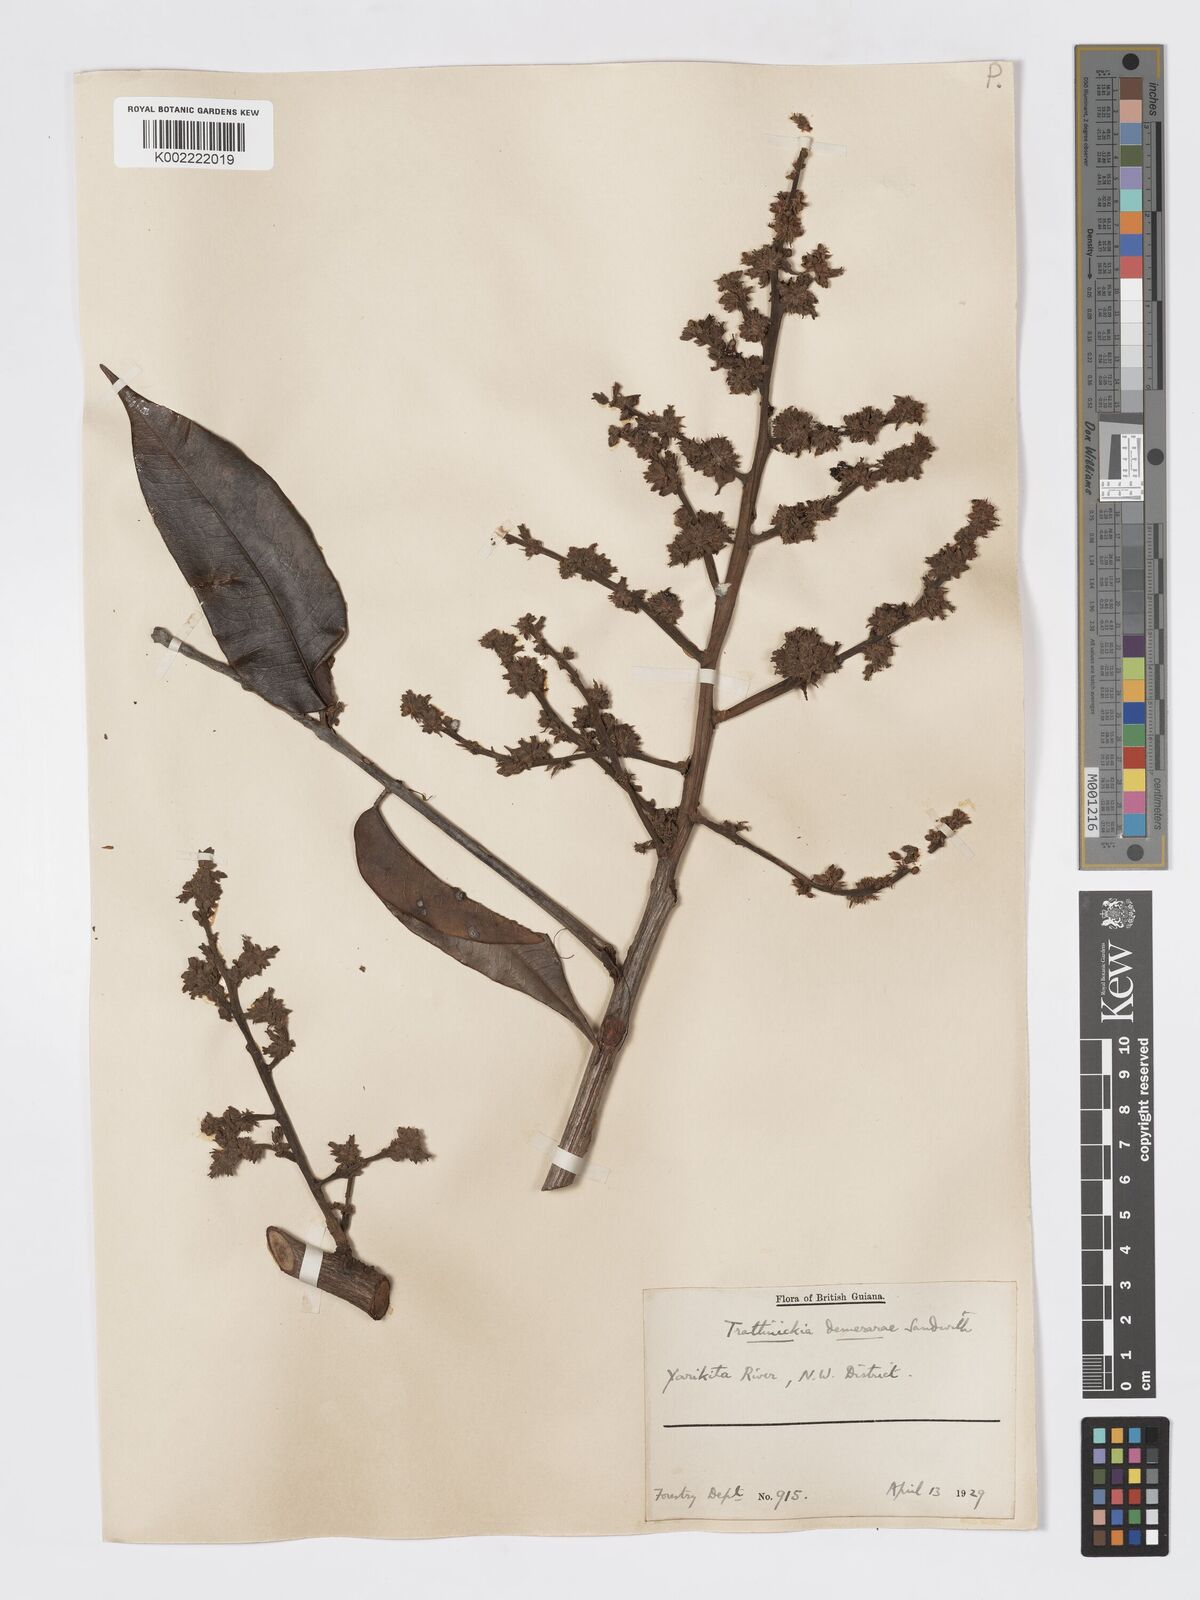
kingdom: Plantae
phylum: Tracheophyta
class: Magnoliopsida
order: Sapindales
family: Burseraceae
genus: Trattinnickia
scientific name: Trattinnickia demerarae
